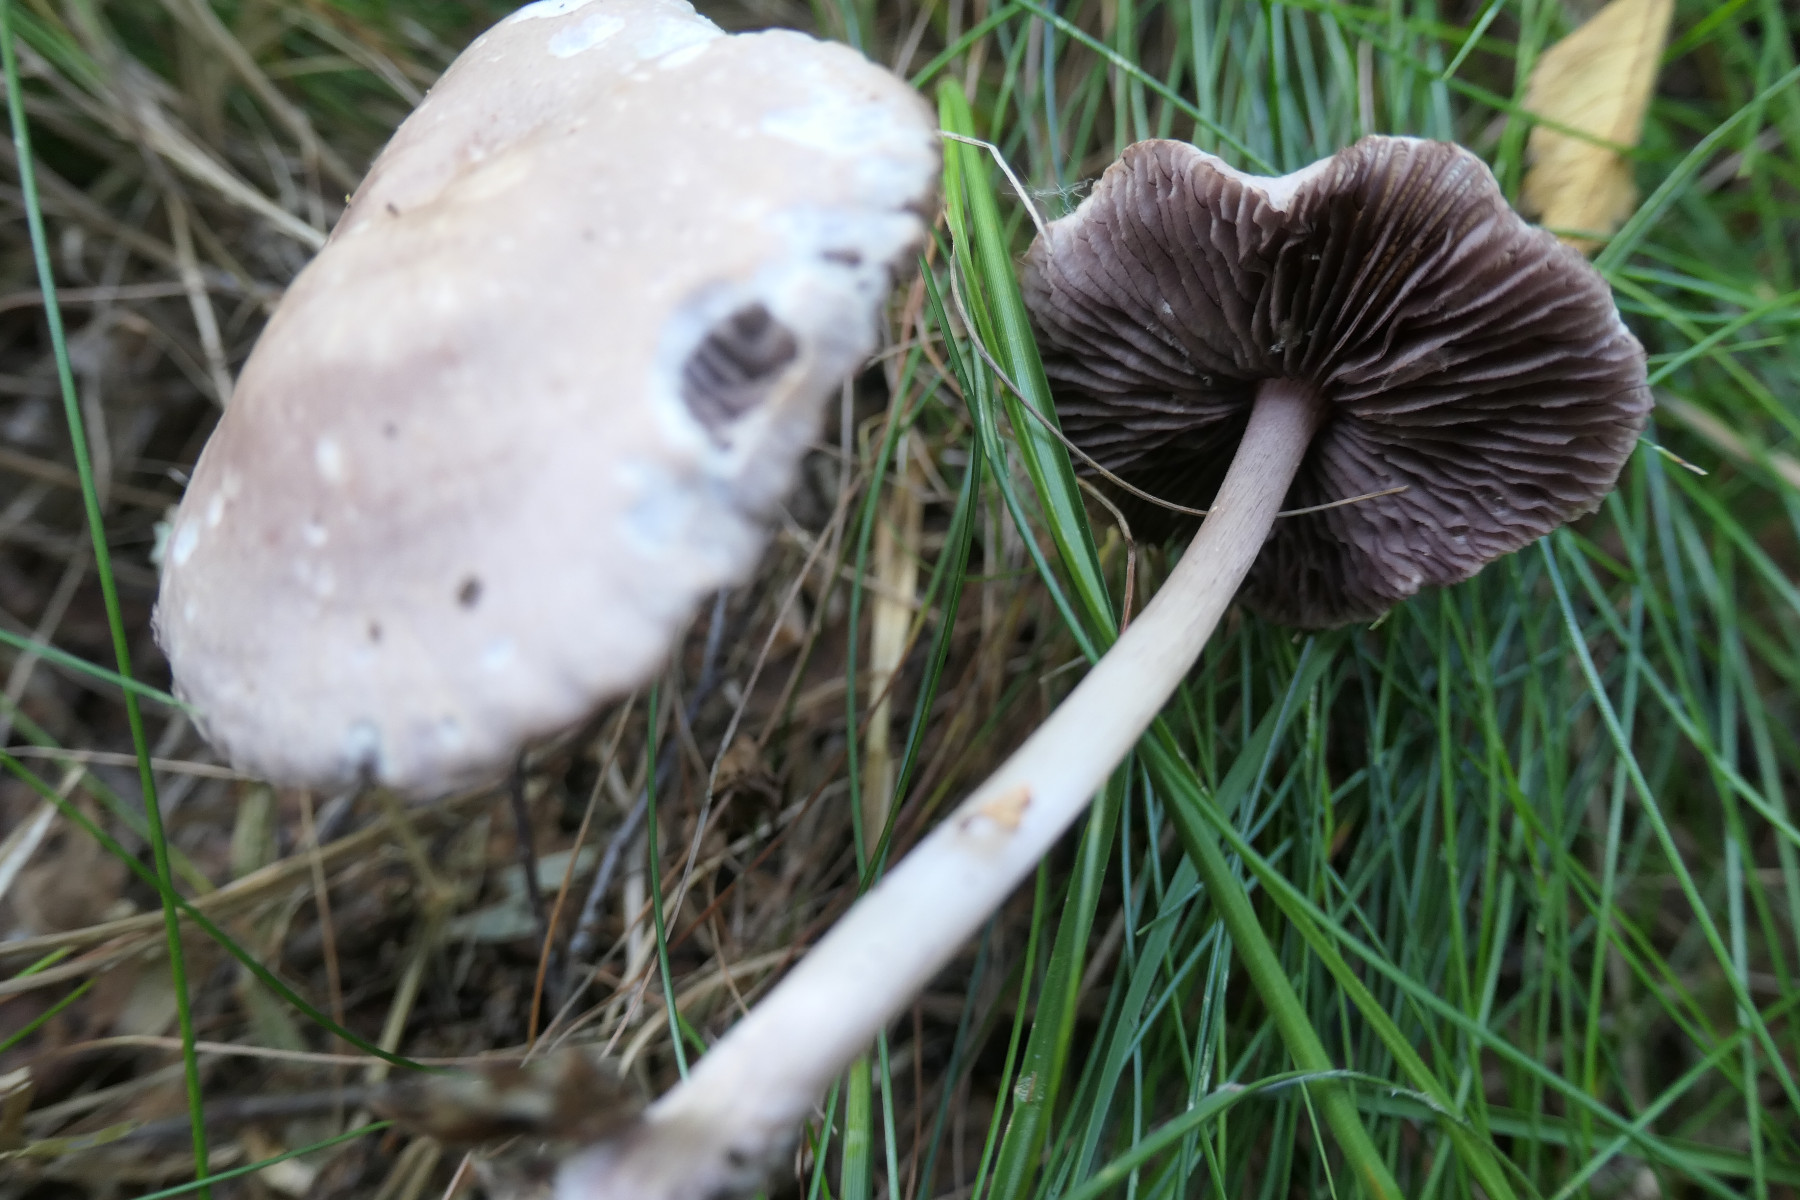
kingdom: Fungi
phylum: Basidiomycota
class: Agaricomycetes
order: Agaricales
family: Mycenaceae
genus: Mycena
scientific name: Mycena pelianthina
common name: mørkbladet huesvamp
